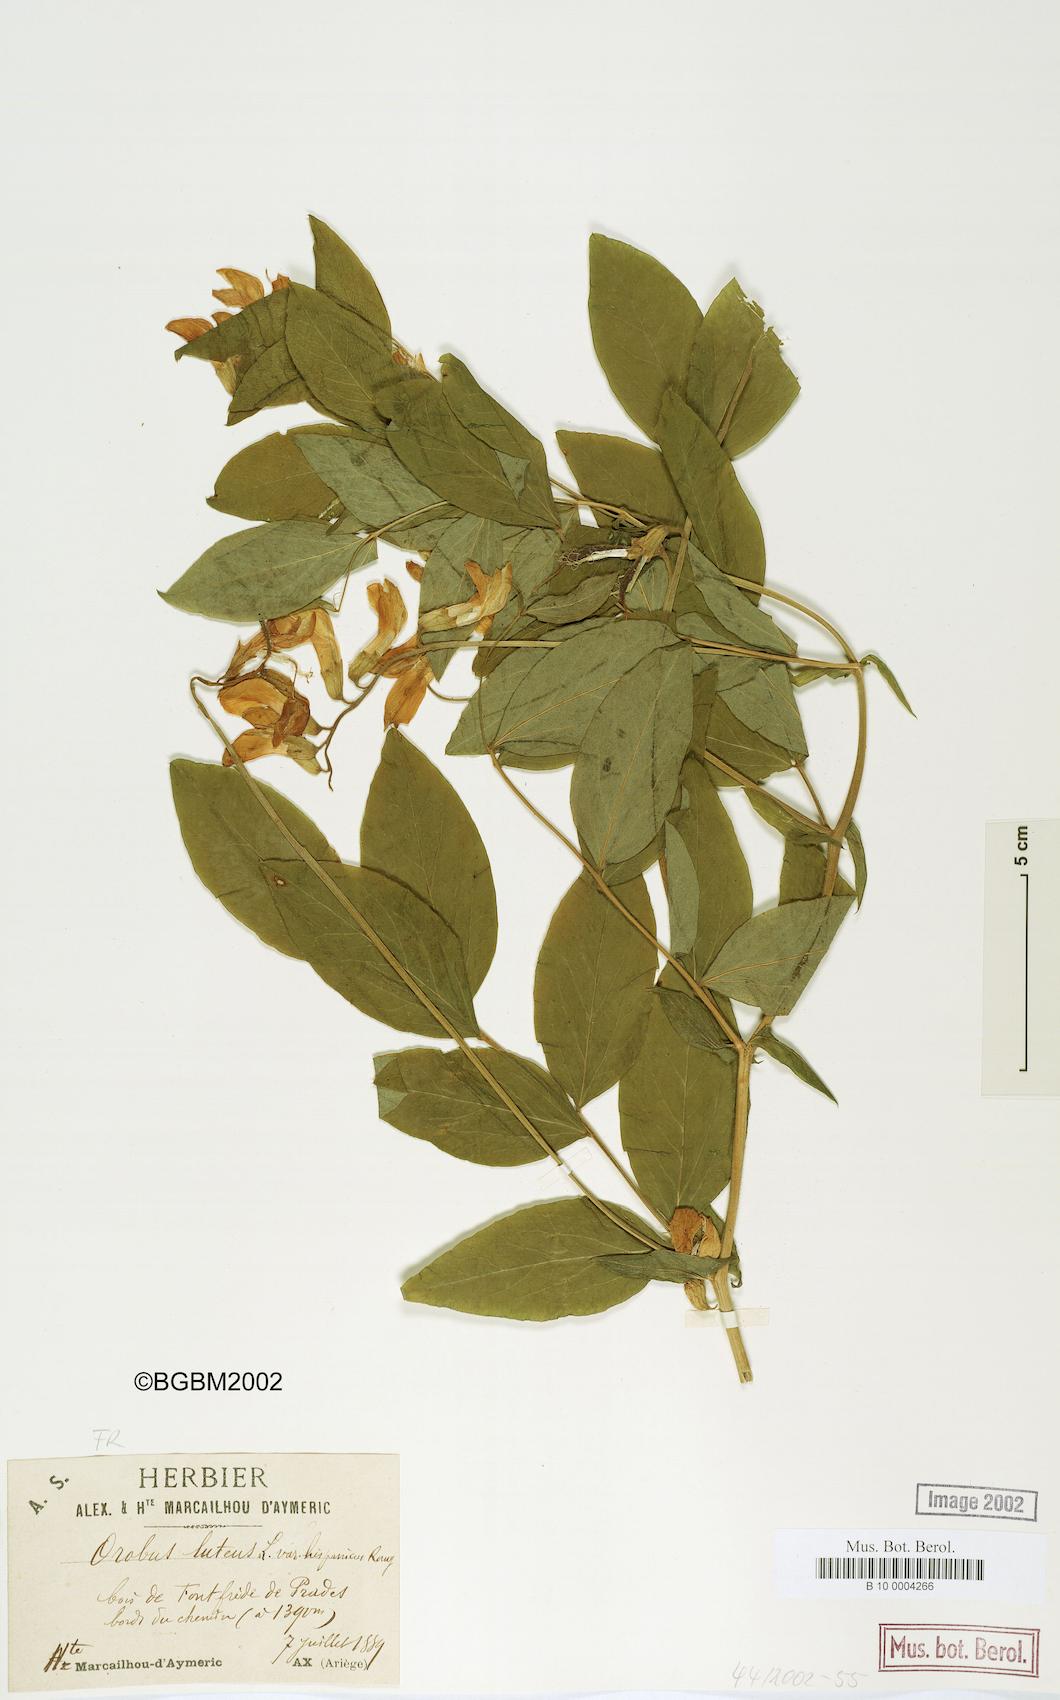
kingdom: Plantae
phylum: Tracheophyta
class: Magnoliopsida
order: Fabales
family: Fabaceae
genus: Lathyrus
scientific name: Lathyrus gmelinii
